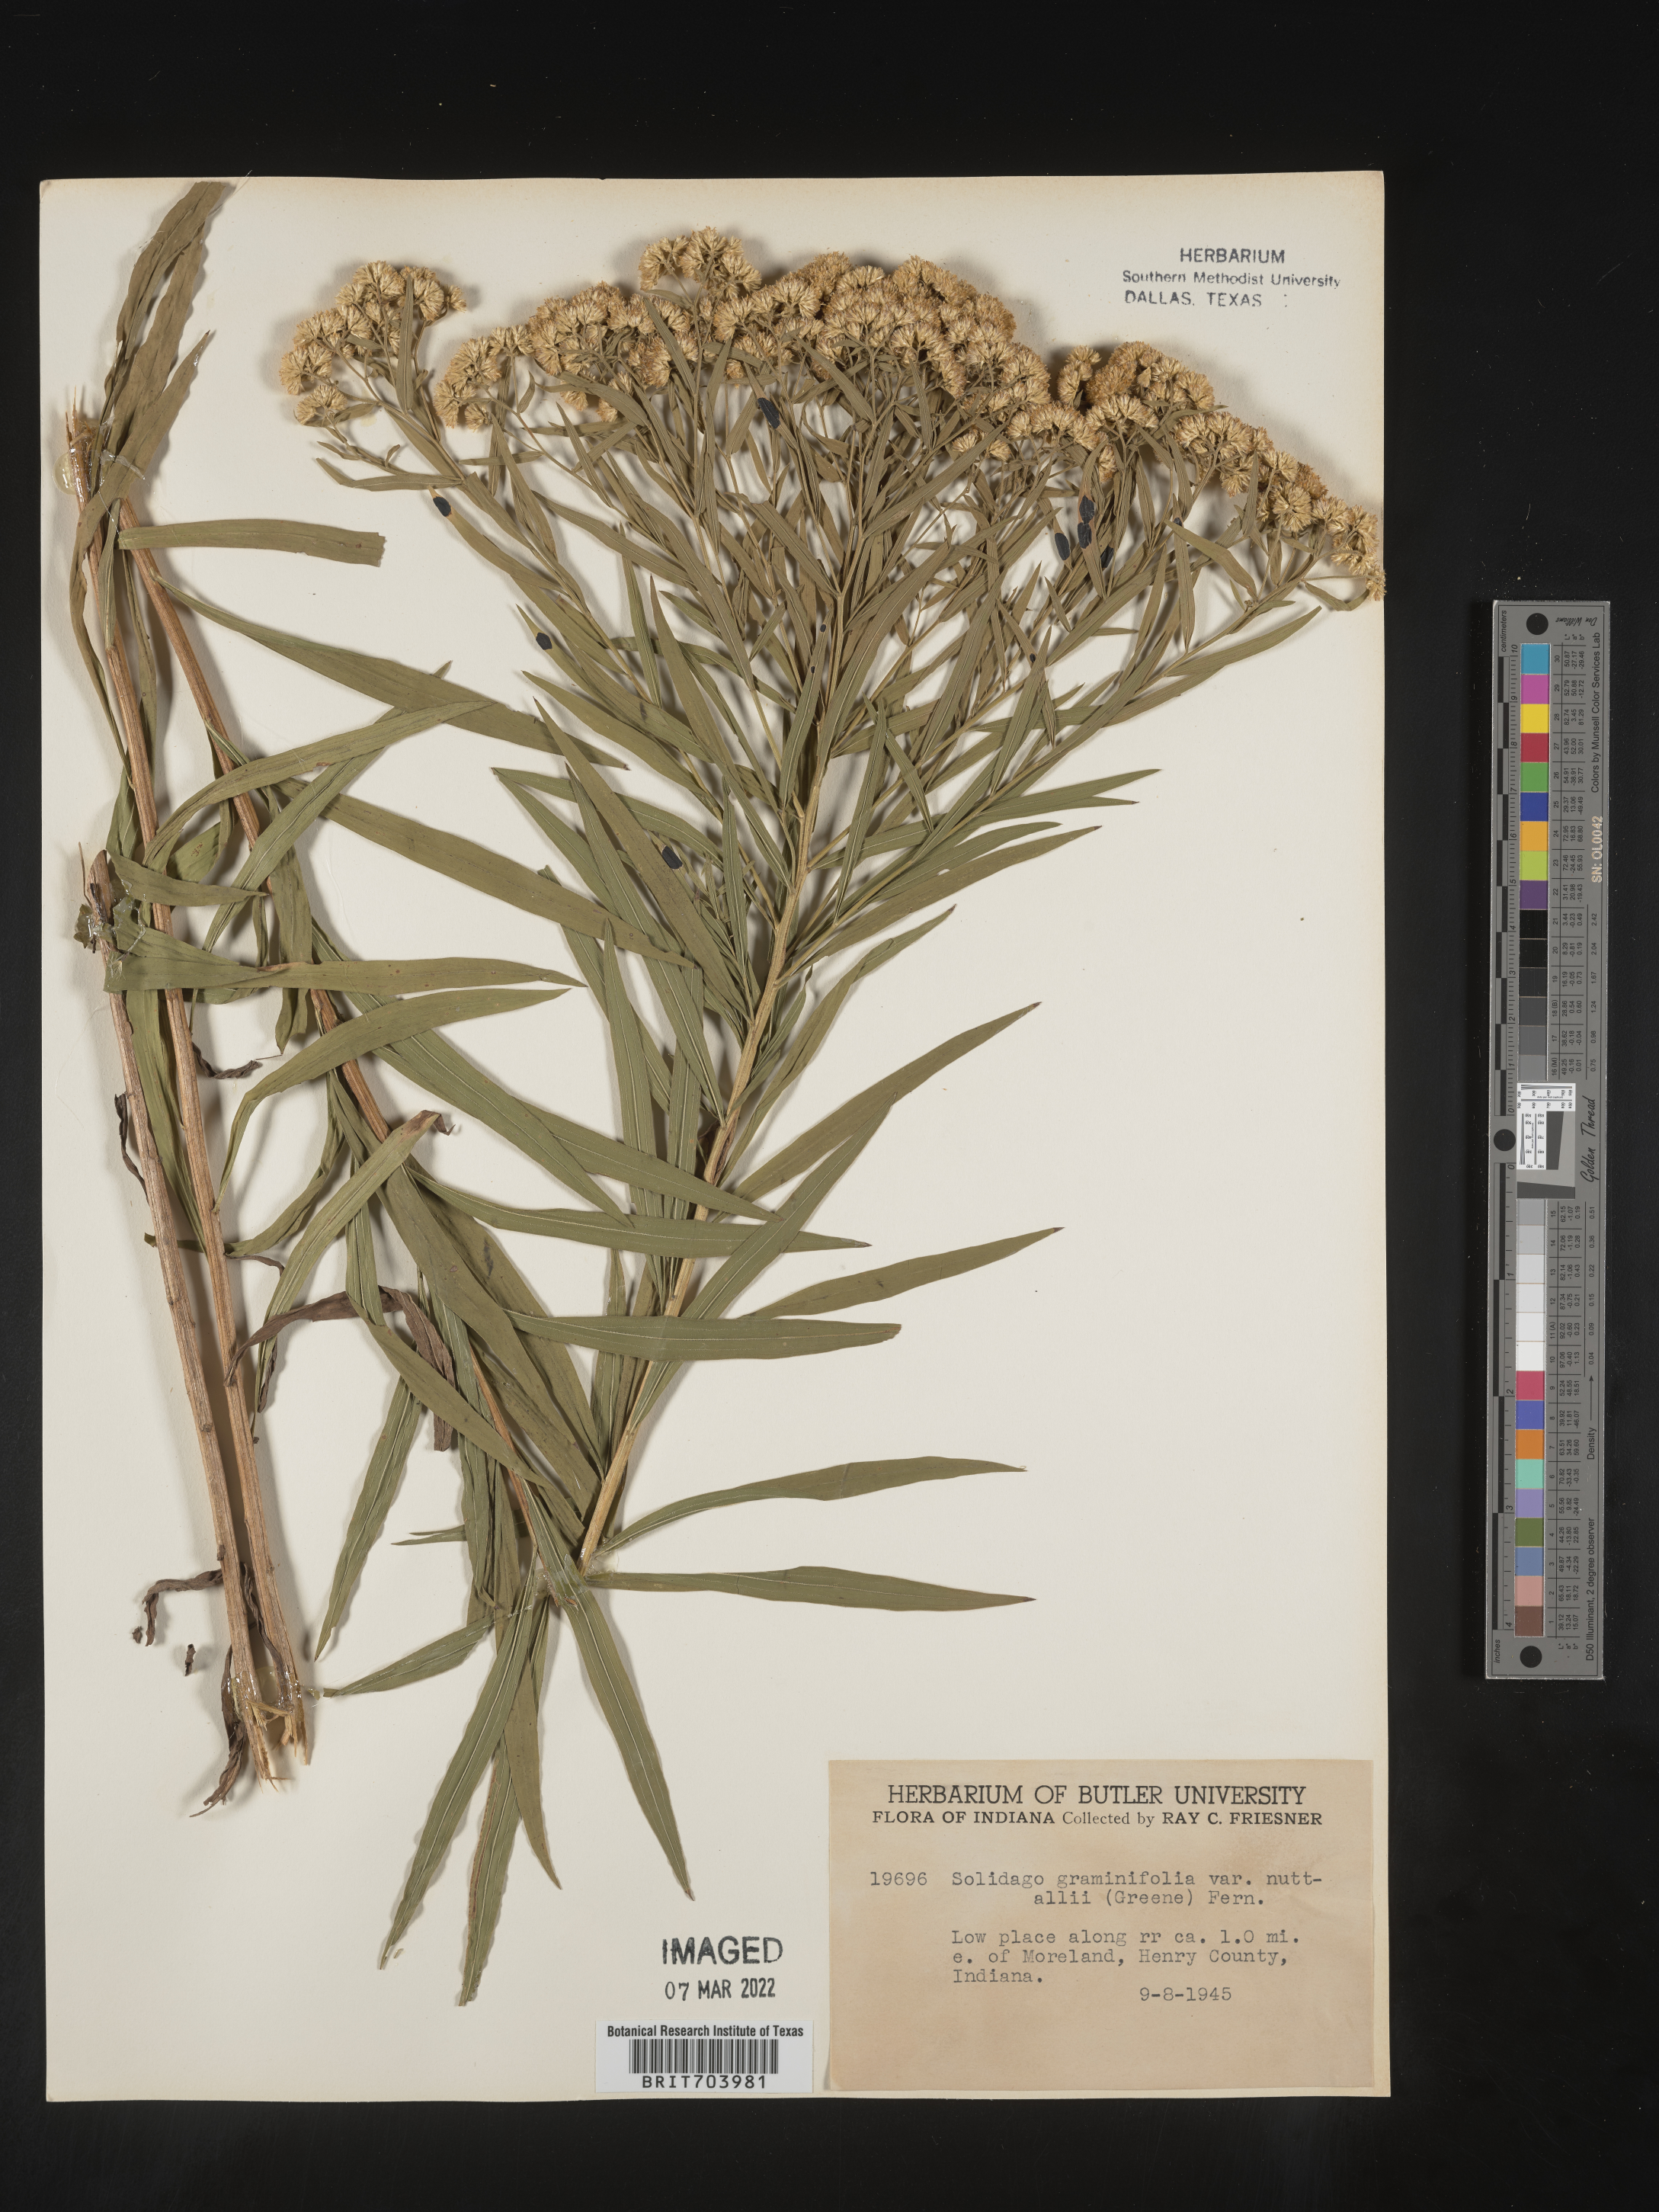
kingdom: Plantae
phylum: Tracheophyta
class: Magnoliopsida
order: Asterales
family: Asteraceae
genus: Euthamia
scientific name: Euthamia graminifolia
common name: Common goldentop
